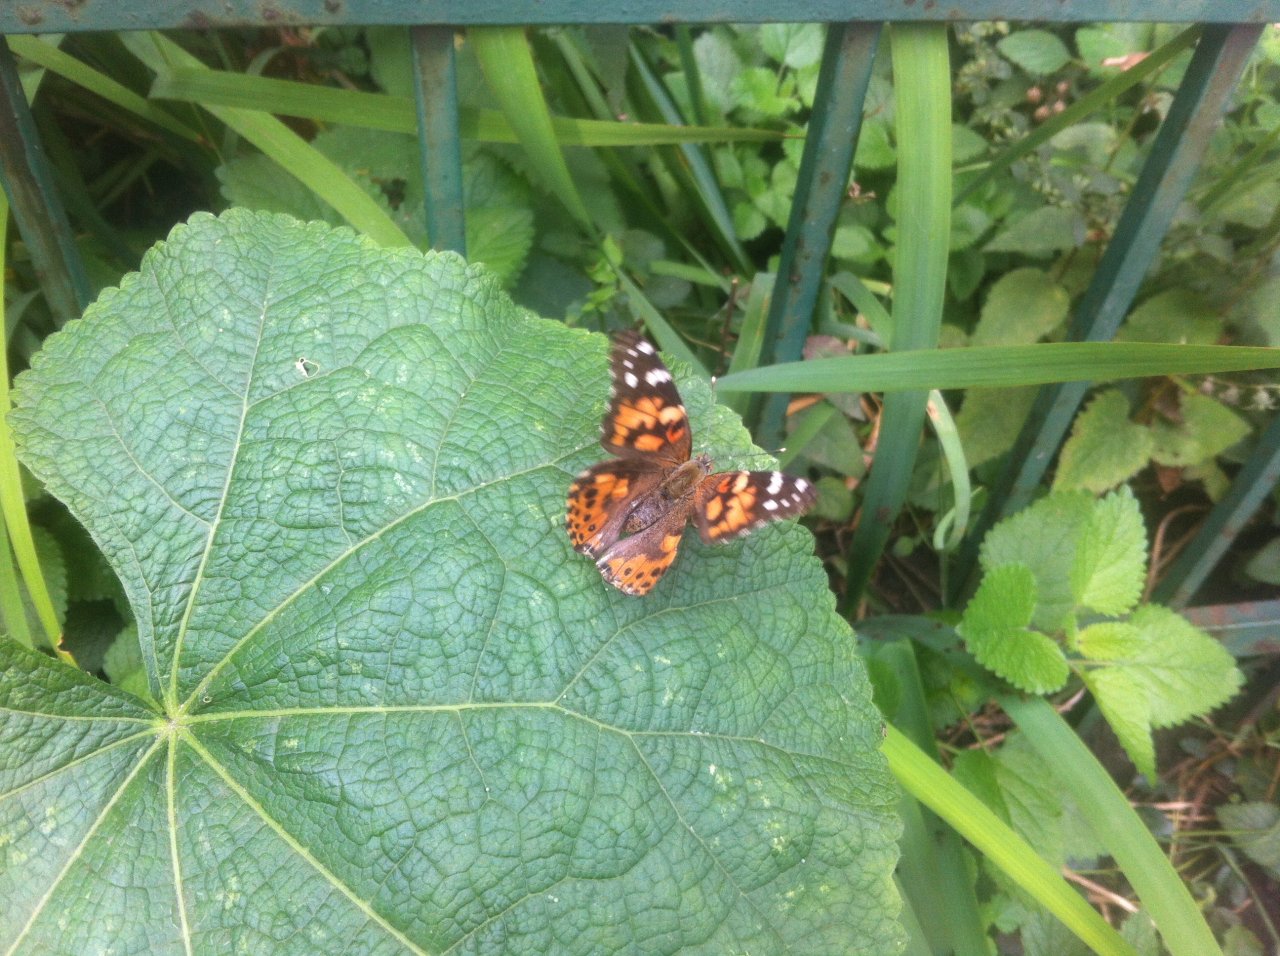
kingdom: Animalia
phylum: Arthropoda
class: Insecta
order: Lepidoptera
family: Nymphalidae
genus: Vanessa
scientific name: Vanessa cardui
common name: Painted Lady
